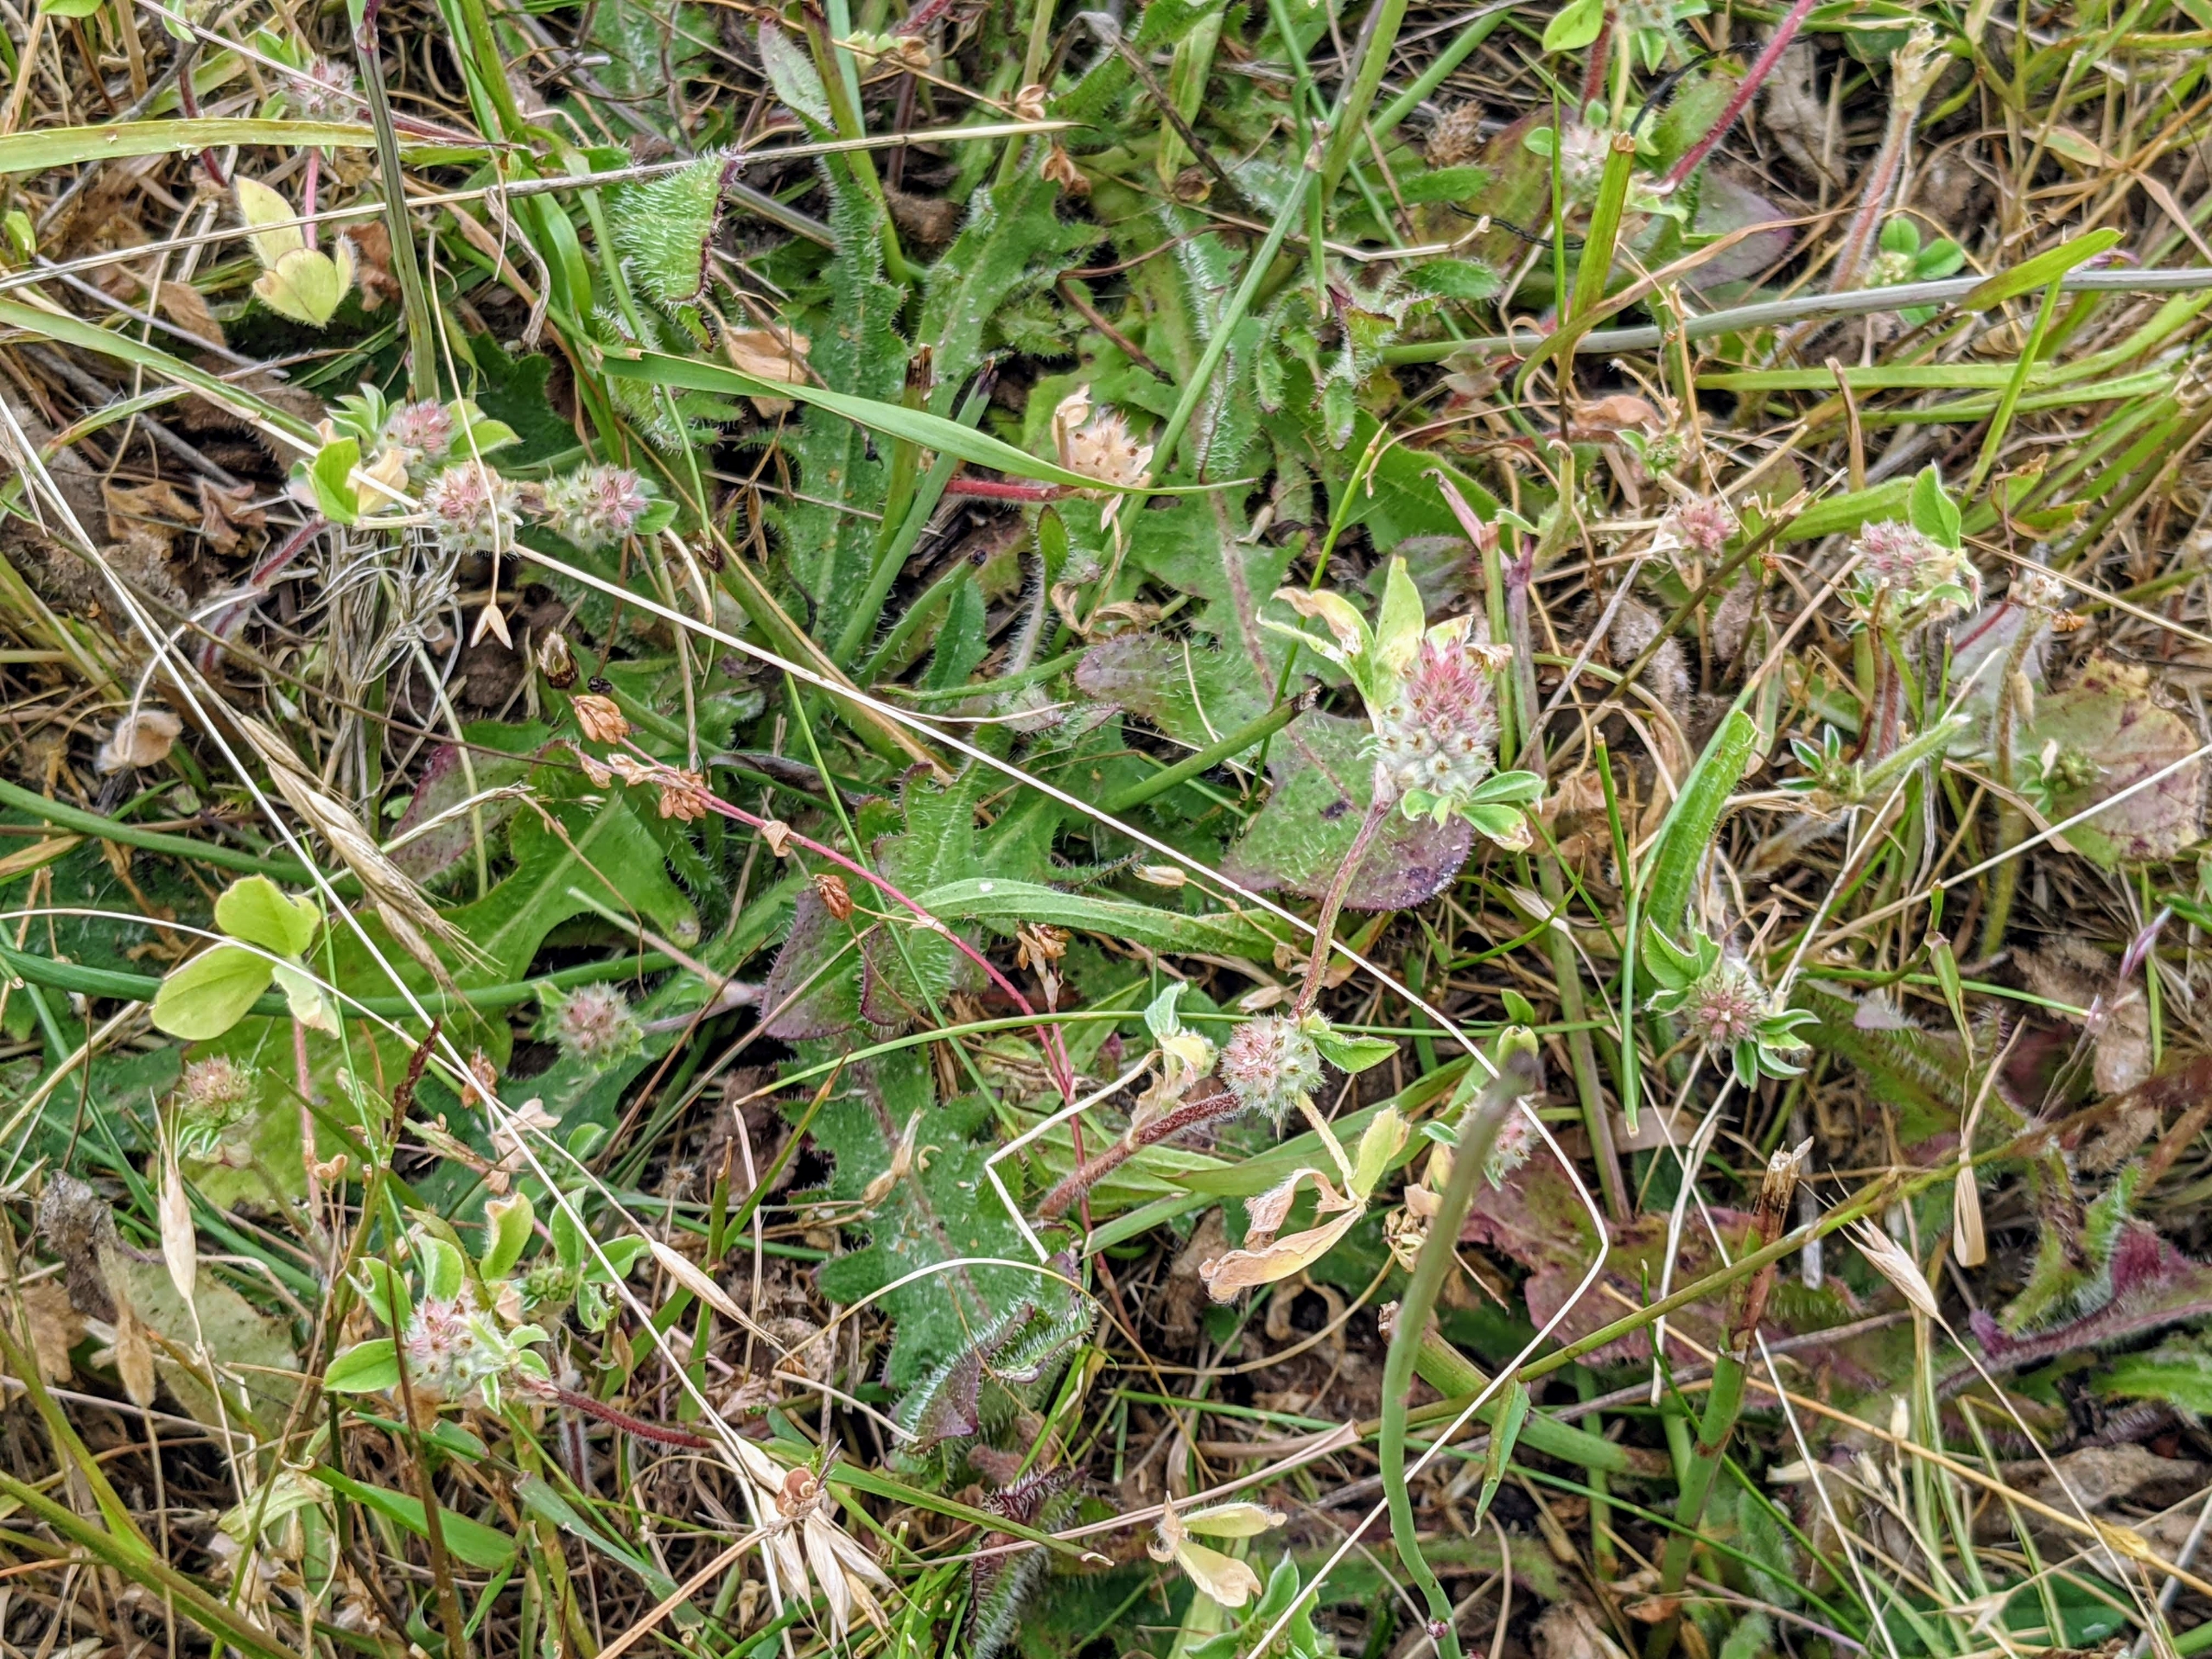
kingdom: Plantae
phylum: Tracheophyta
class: Magnoliopsida
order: Fabales
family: Fabaceae
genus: Trifolium
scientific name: Trifolium striatum
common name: Stribet kløver
